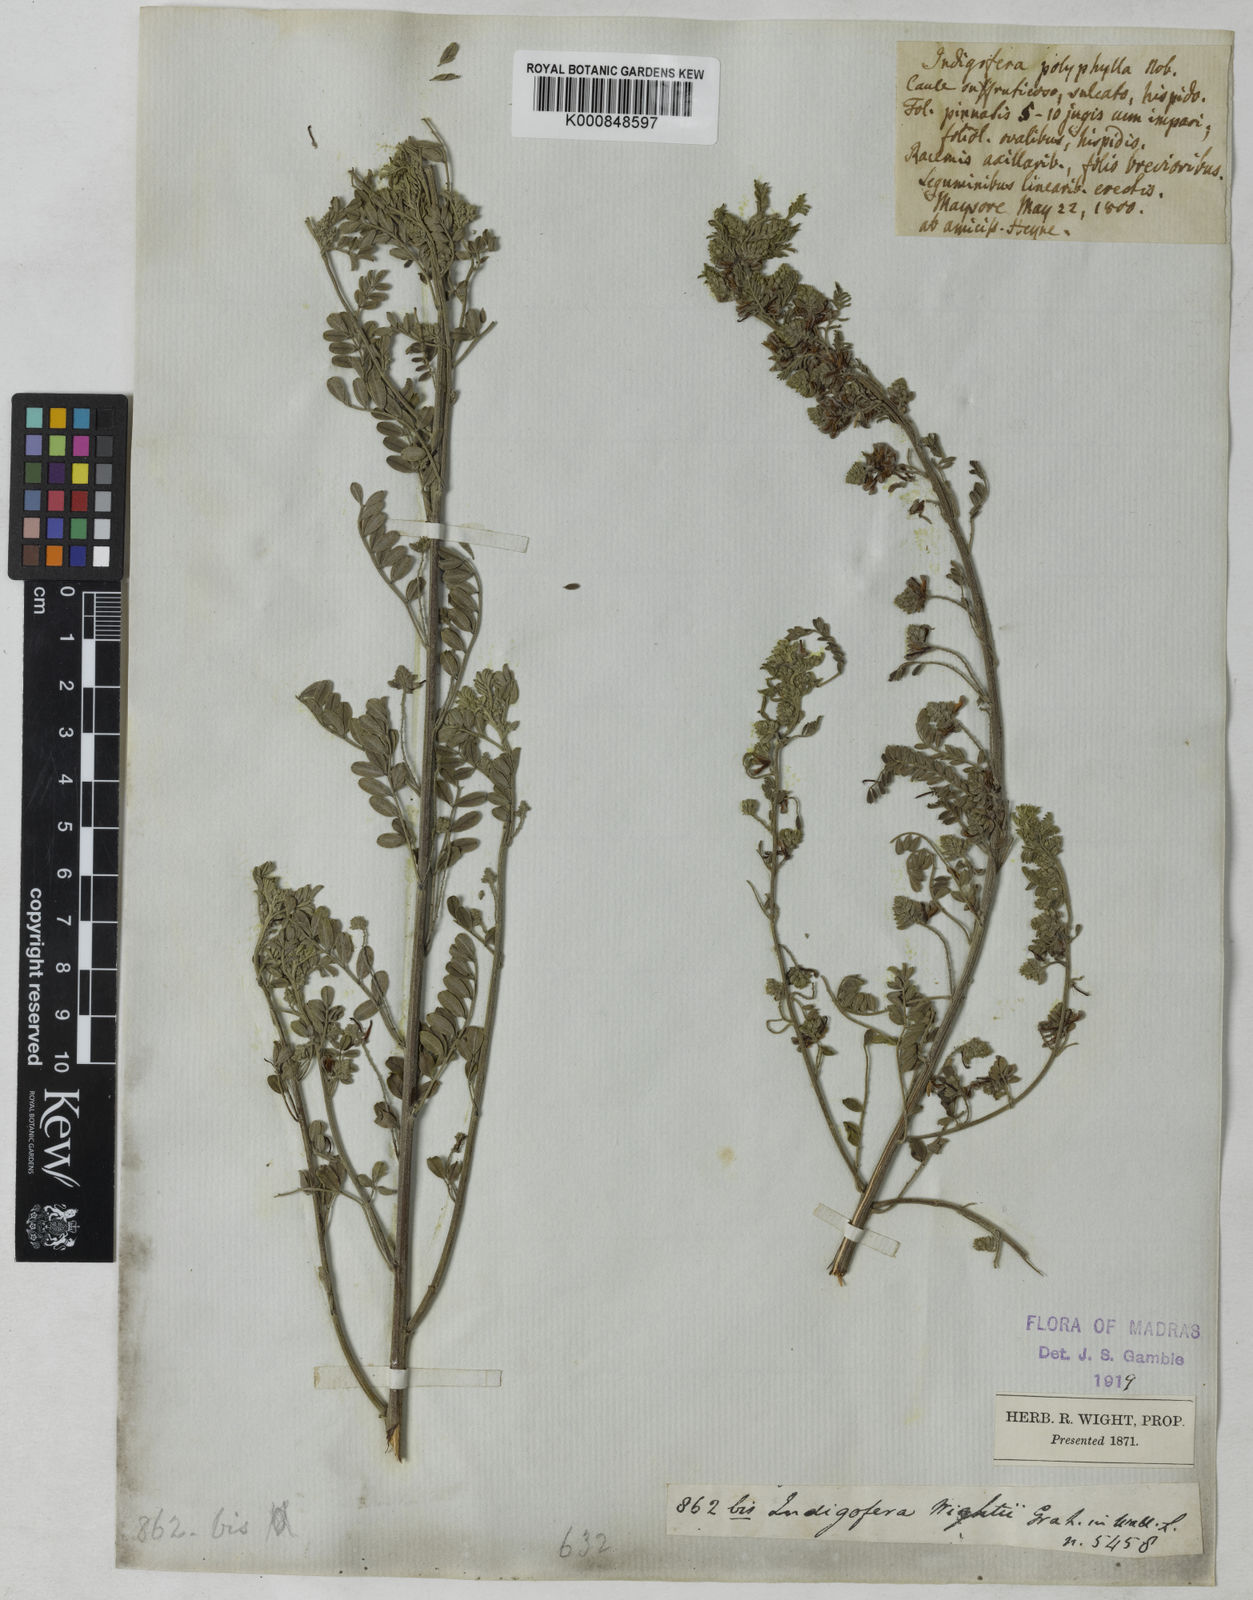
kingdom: Plantae
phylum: Tracheophyta
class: Magnoliopsida
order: Fabales
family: Fabaceae
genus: Indigofera
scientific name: Indigofera
